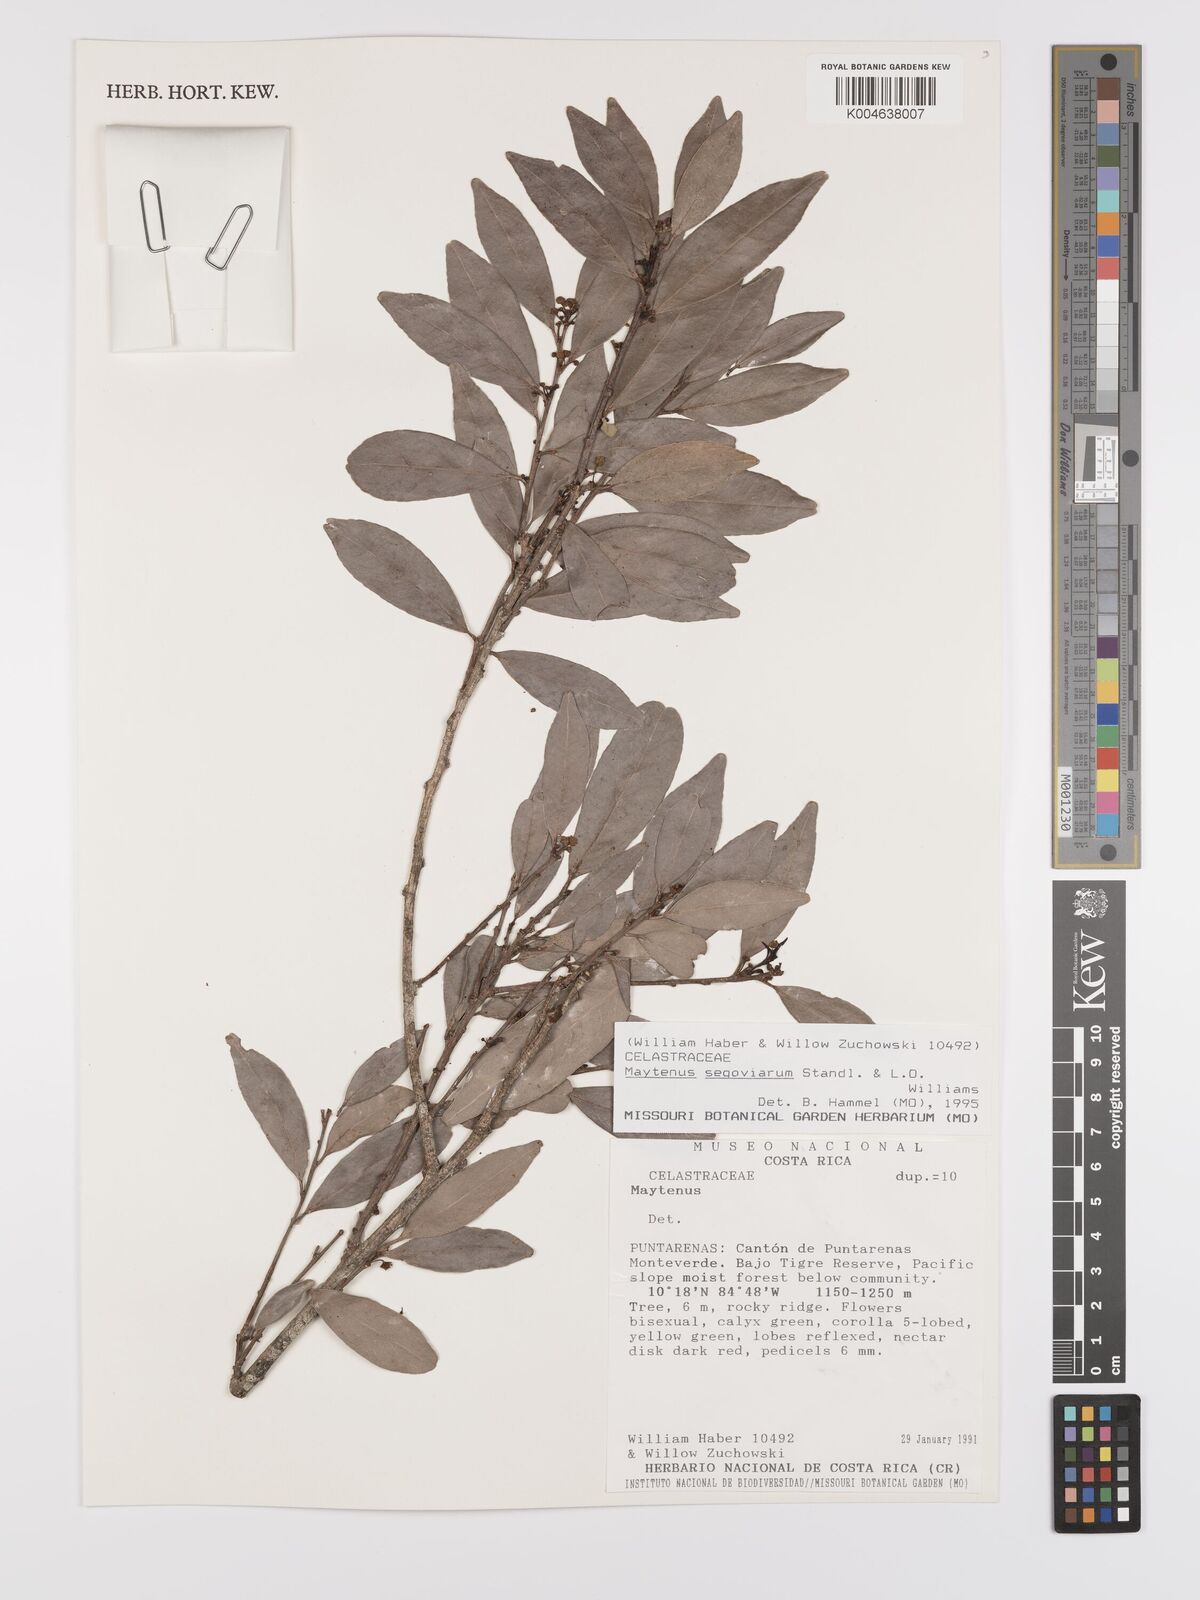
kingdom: Plantae
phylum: Tracheophyta
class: Magnoliopsida
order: Celastrales
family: Celastraceae
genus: Monteverdia
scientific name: Monteverdia segoviarum
